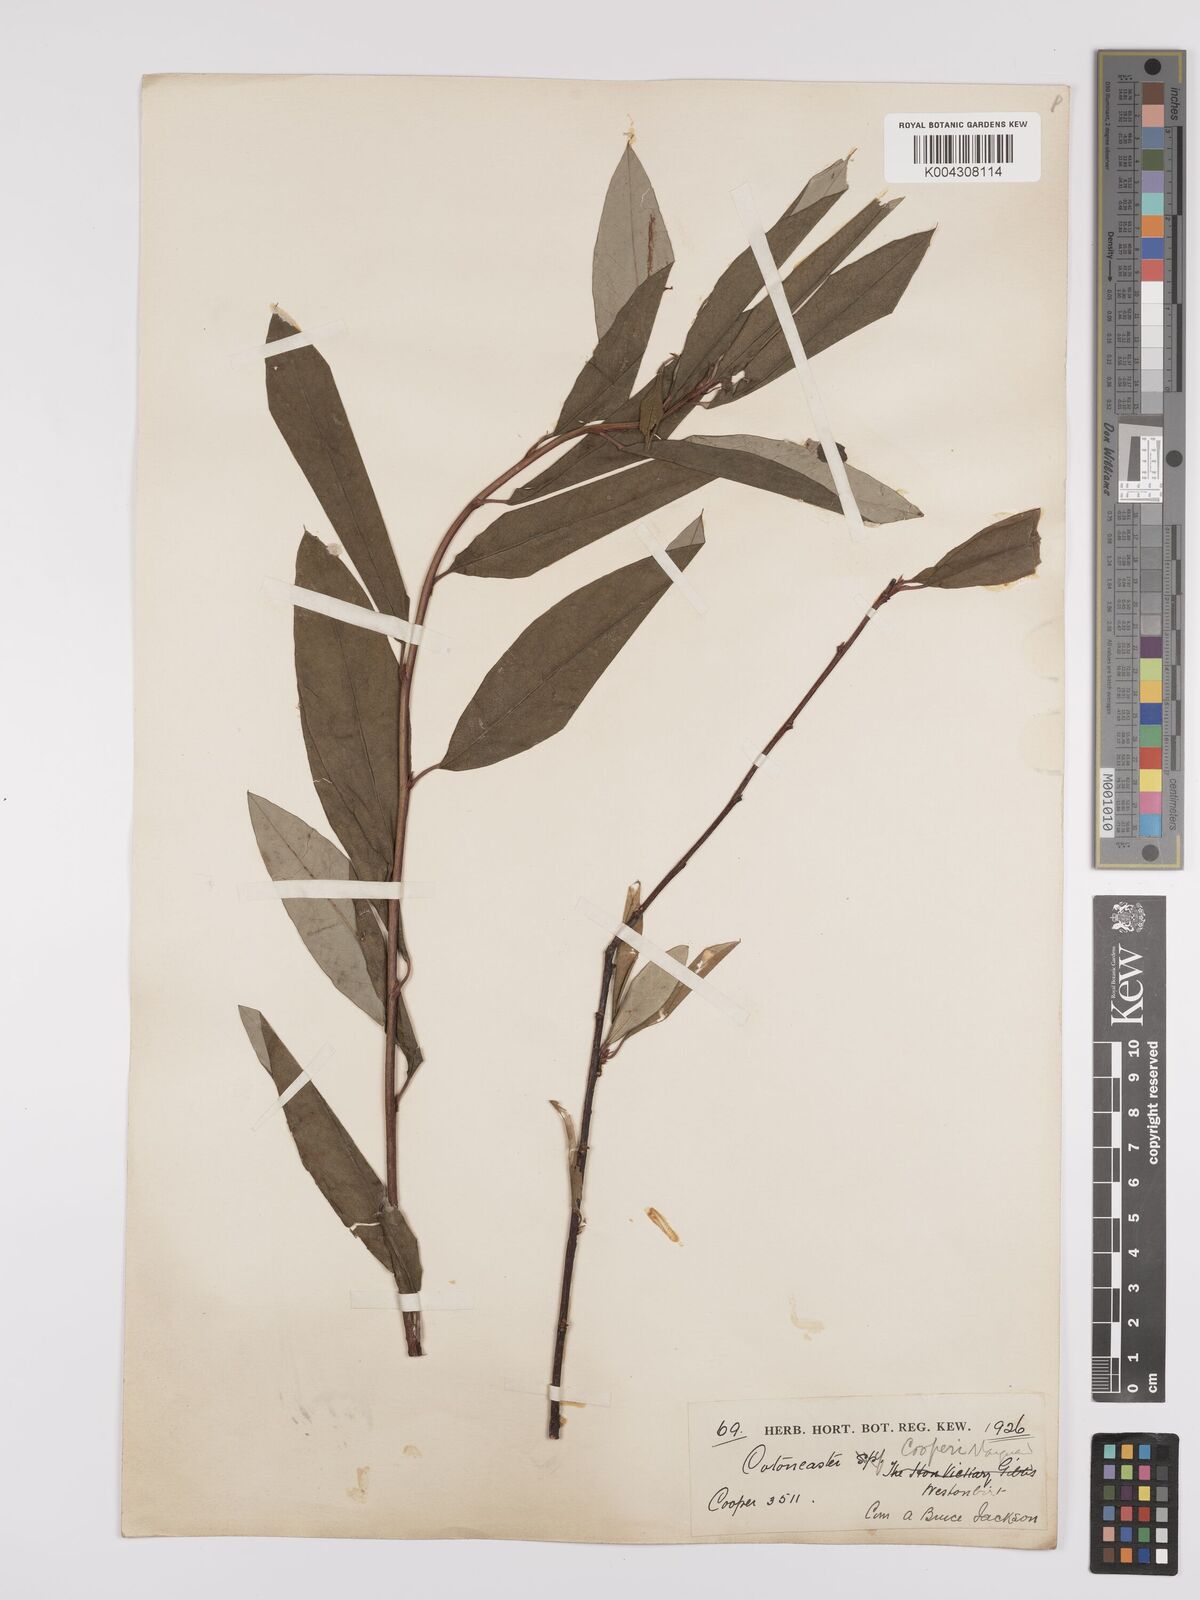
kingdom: Plantae
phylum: Tracheophyta
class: Magnoliopsida
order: Rosales
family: Rosaceae
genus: Cotoneaster
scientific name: Cotoneaster cooperi
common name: Cooper's cotoneaster
